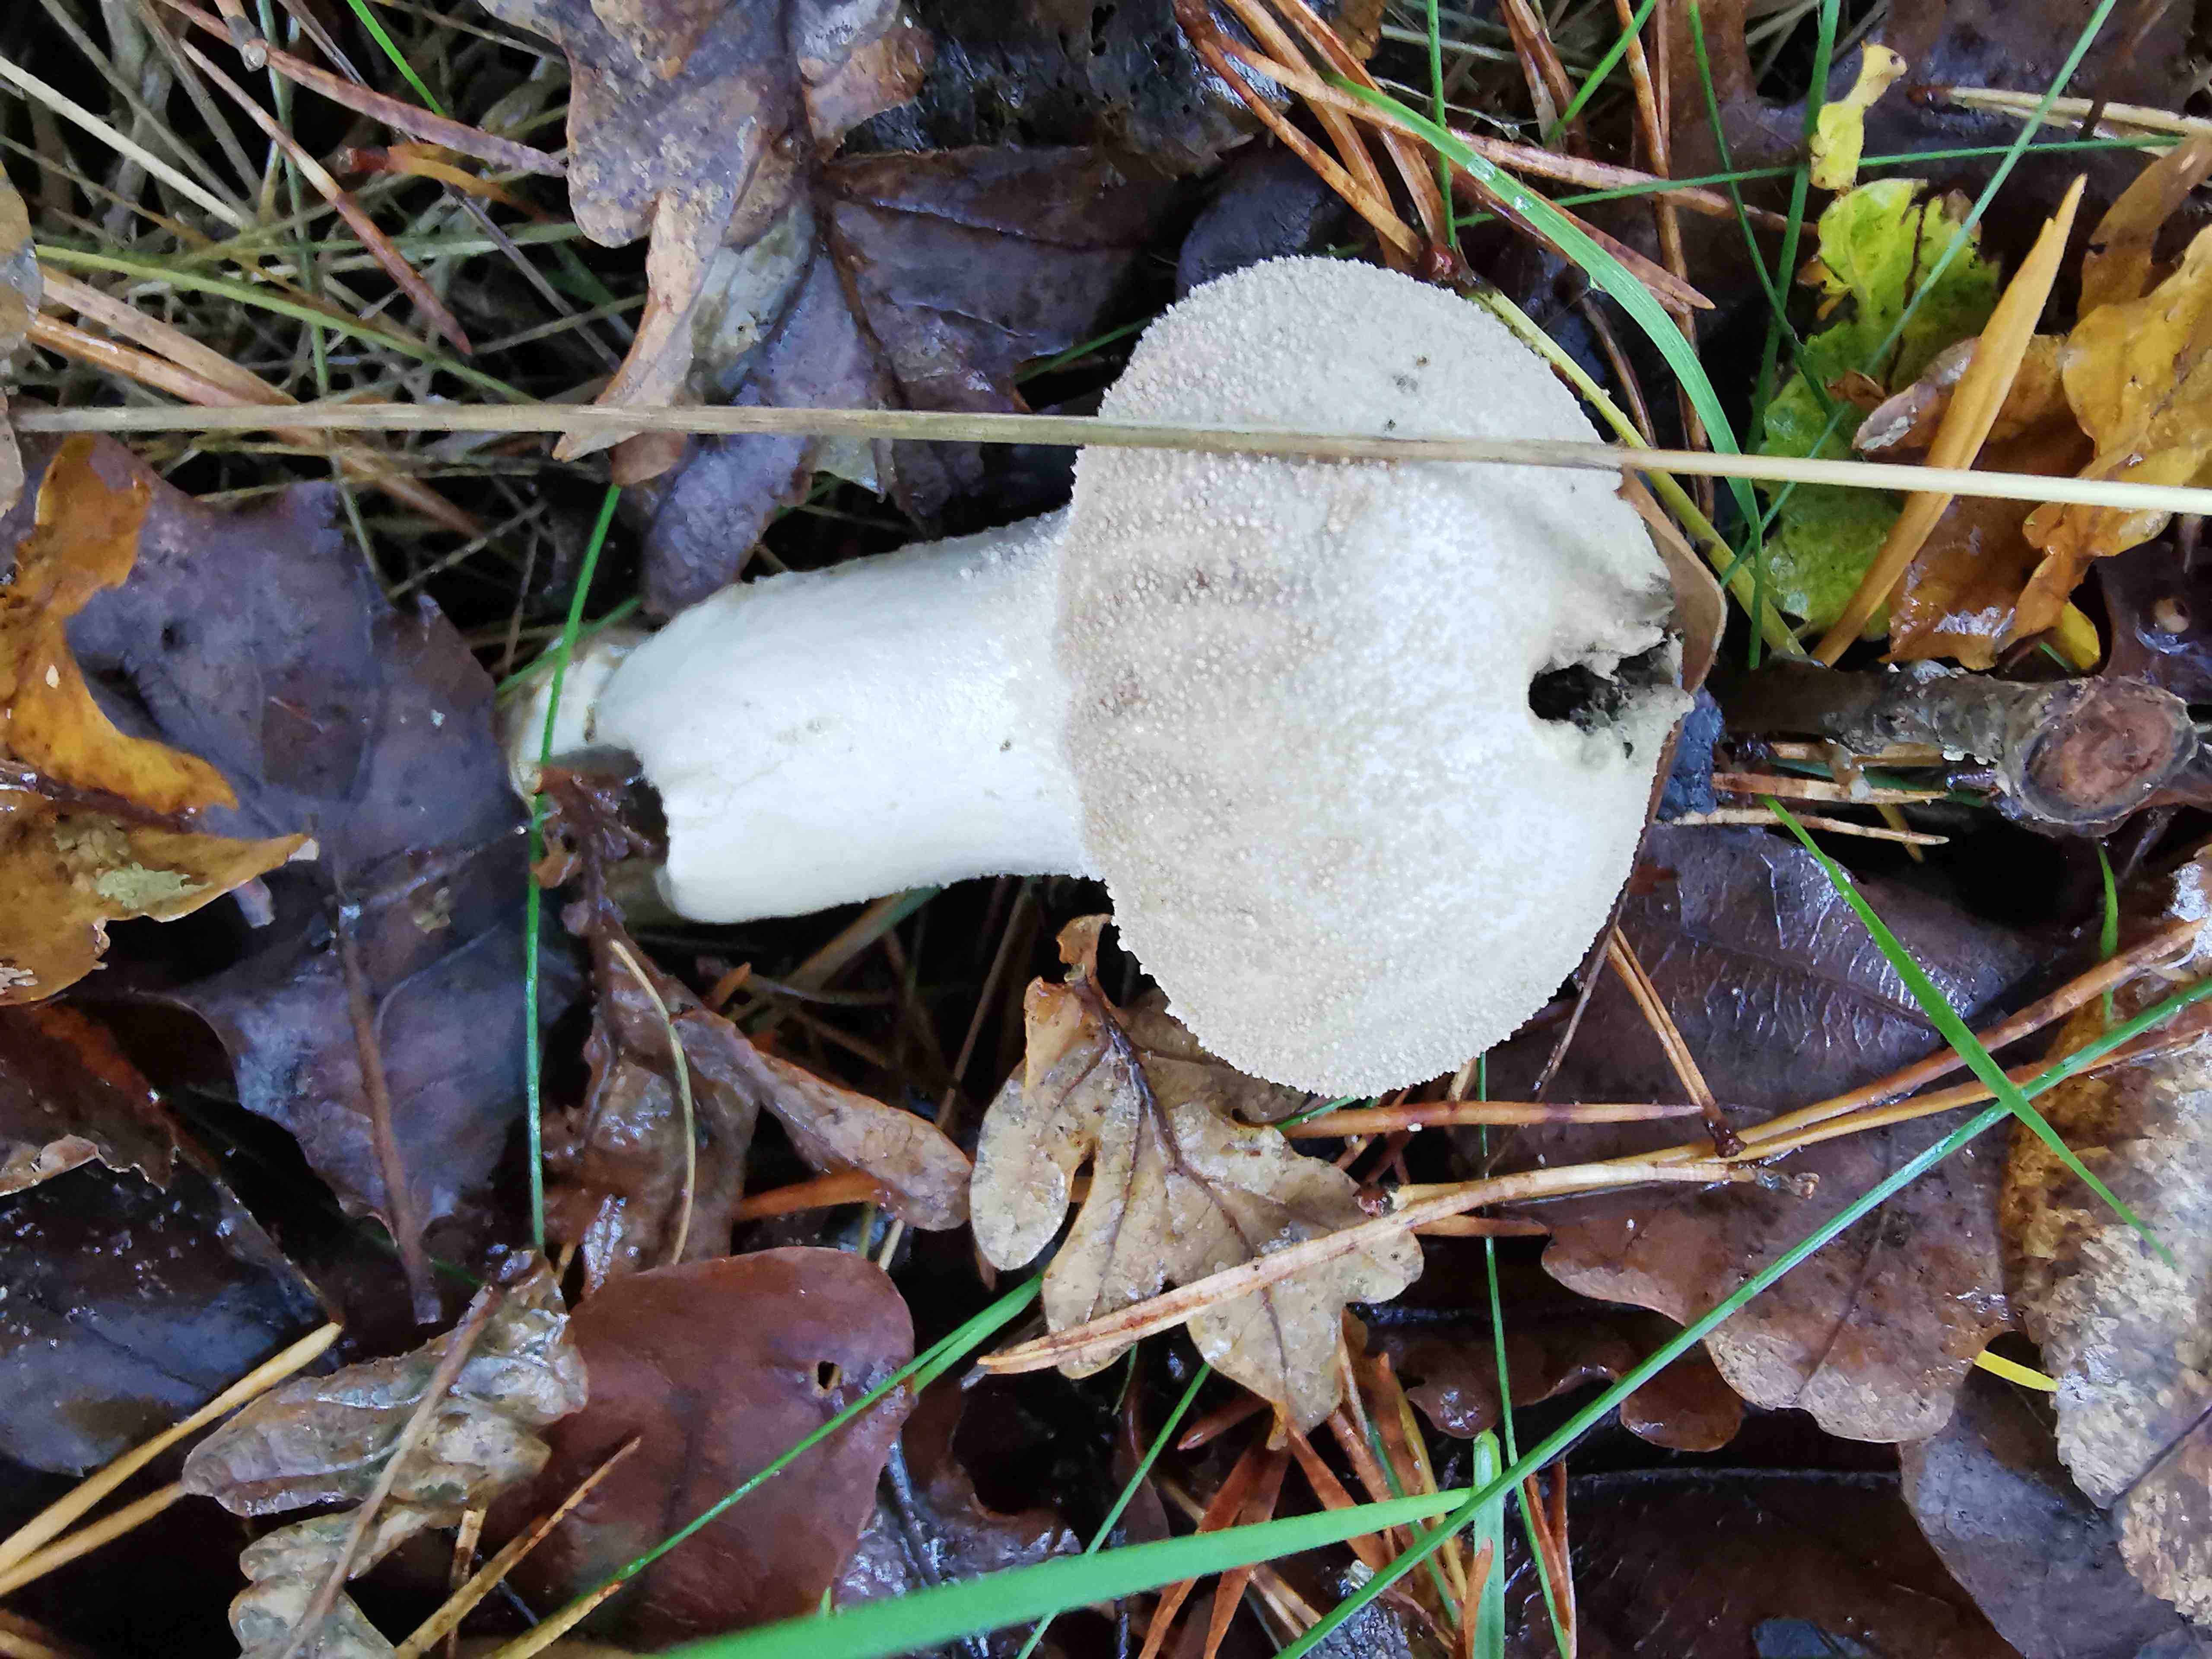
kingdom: Fungi
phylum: Basidiomycota
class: Agaricomycetes
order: Agaricales
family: Lycoperdaceae
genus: Lycoperdon
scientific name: Lycoperdon excipuliforme
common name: højstokket støvbold
